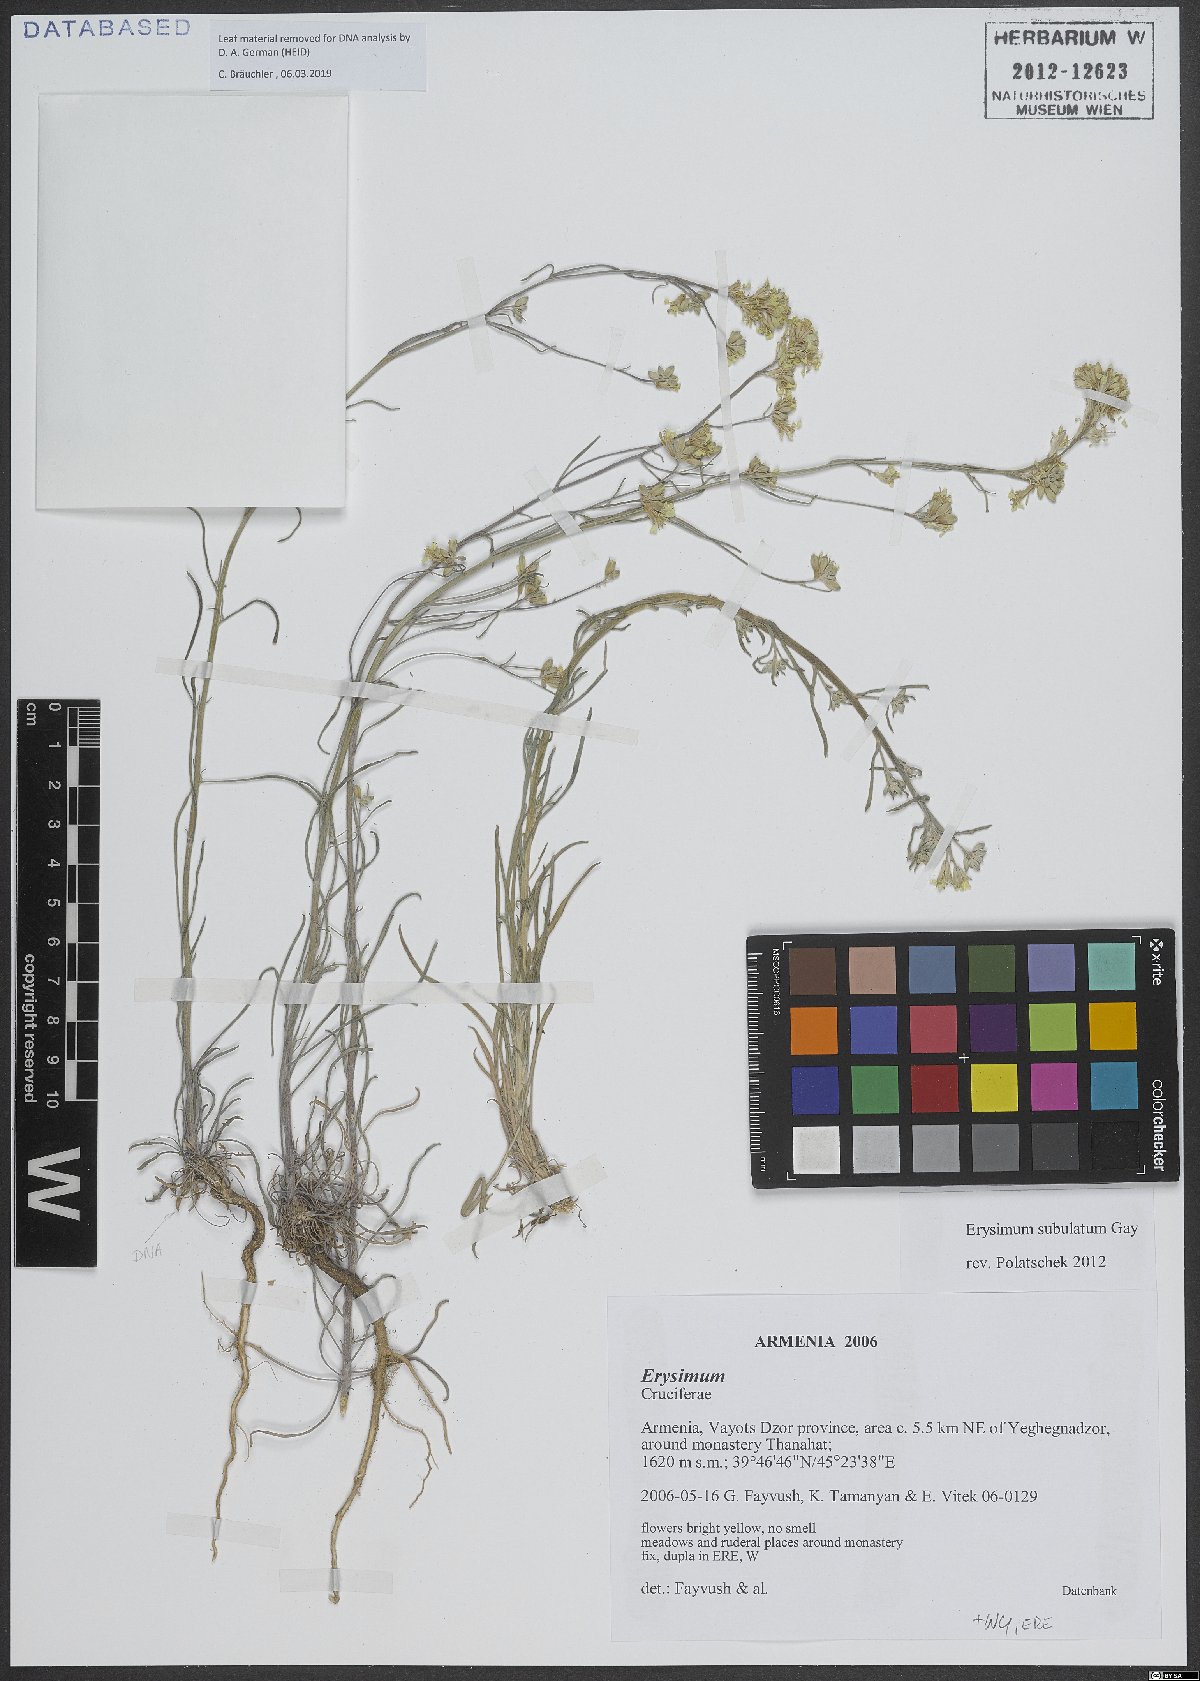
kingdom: Plantae
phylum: Tracheophyta
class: Magnoliopsida
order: Brassicales
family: Brassicaceae
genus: Erysimum
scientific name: Erysimum subulatum
